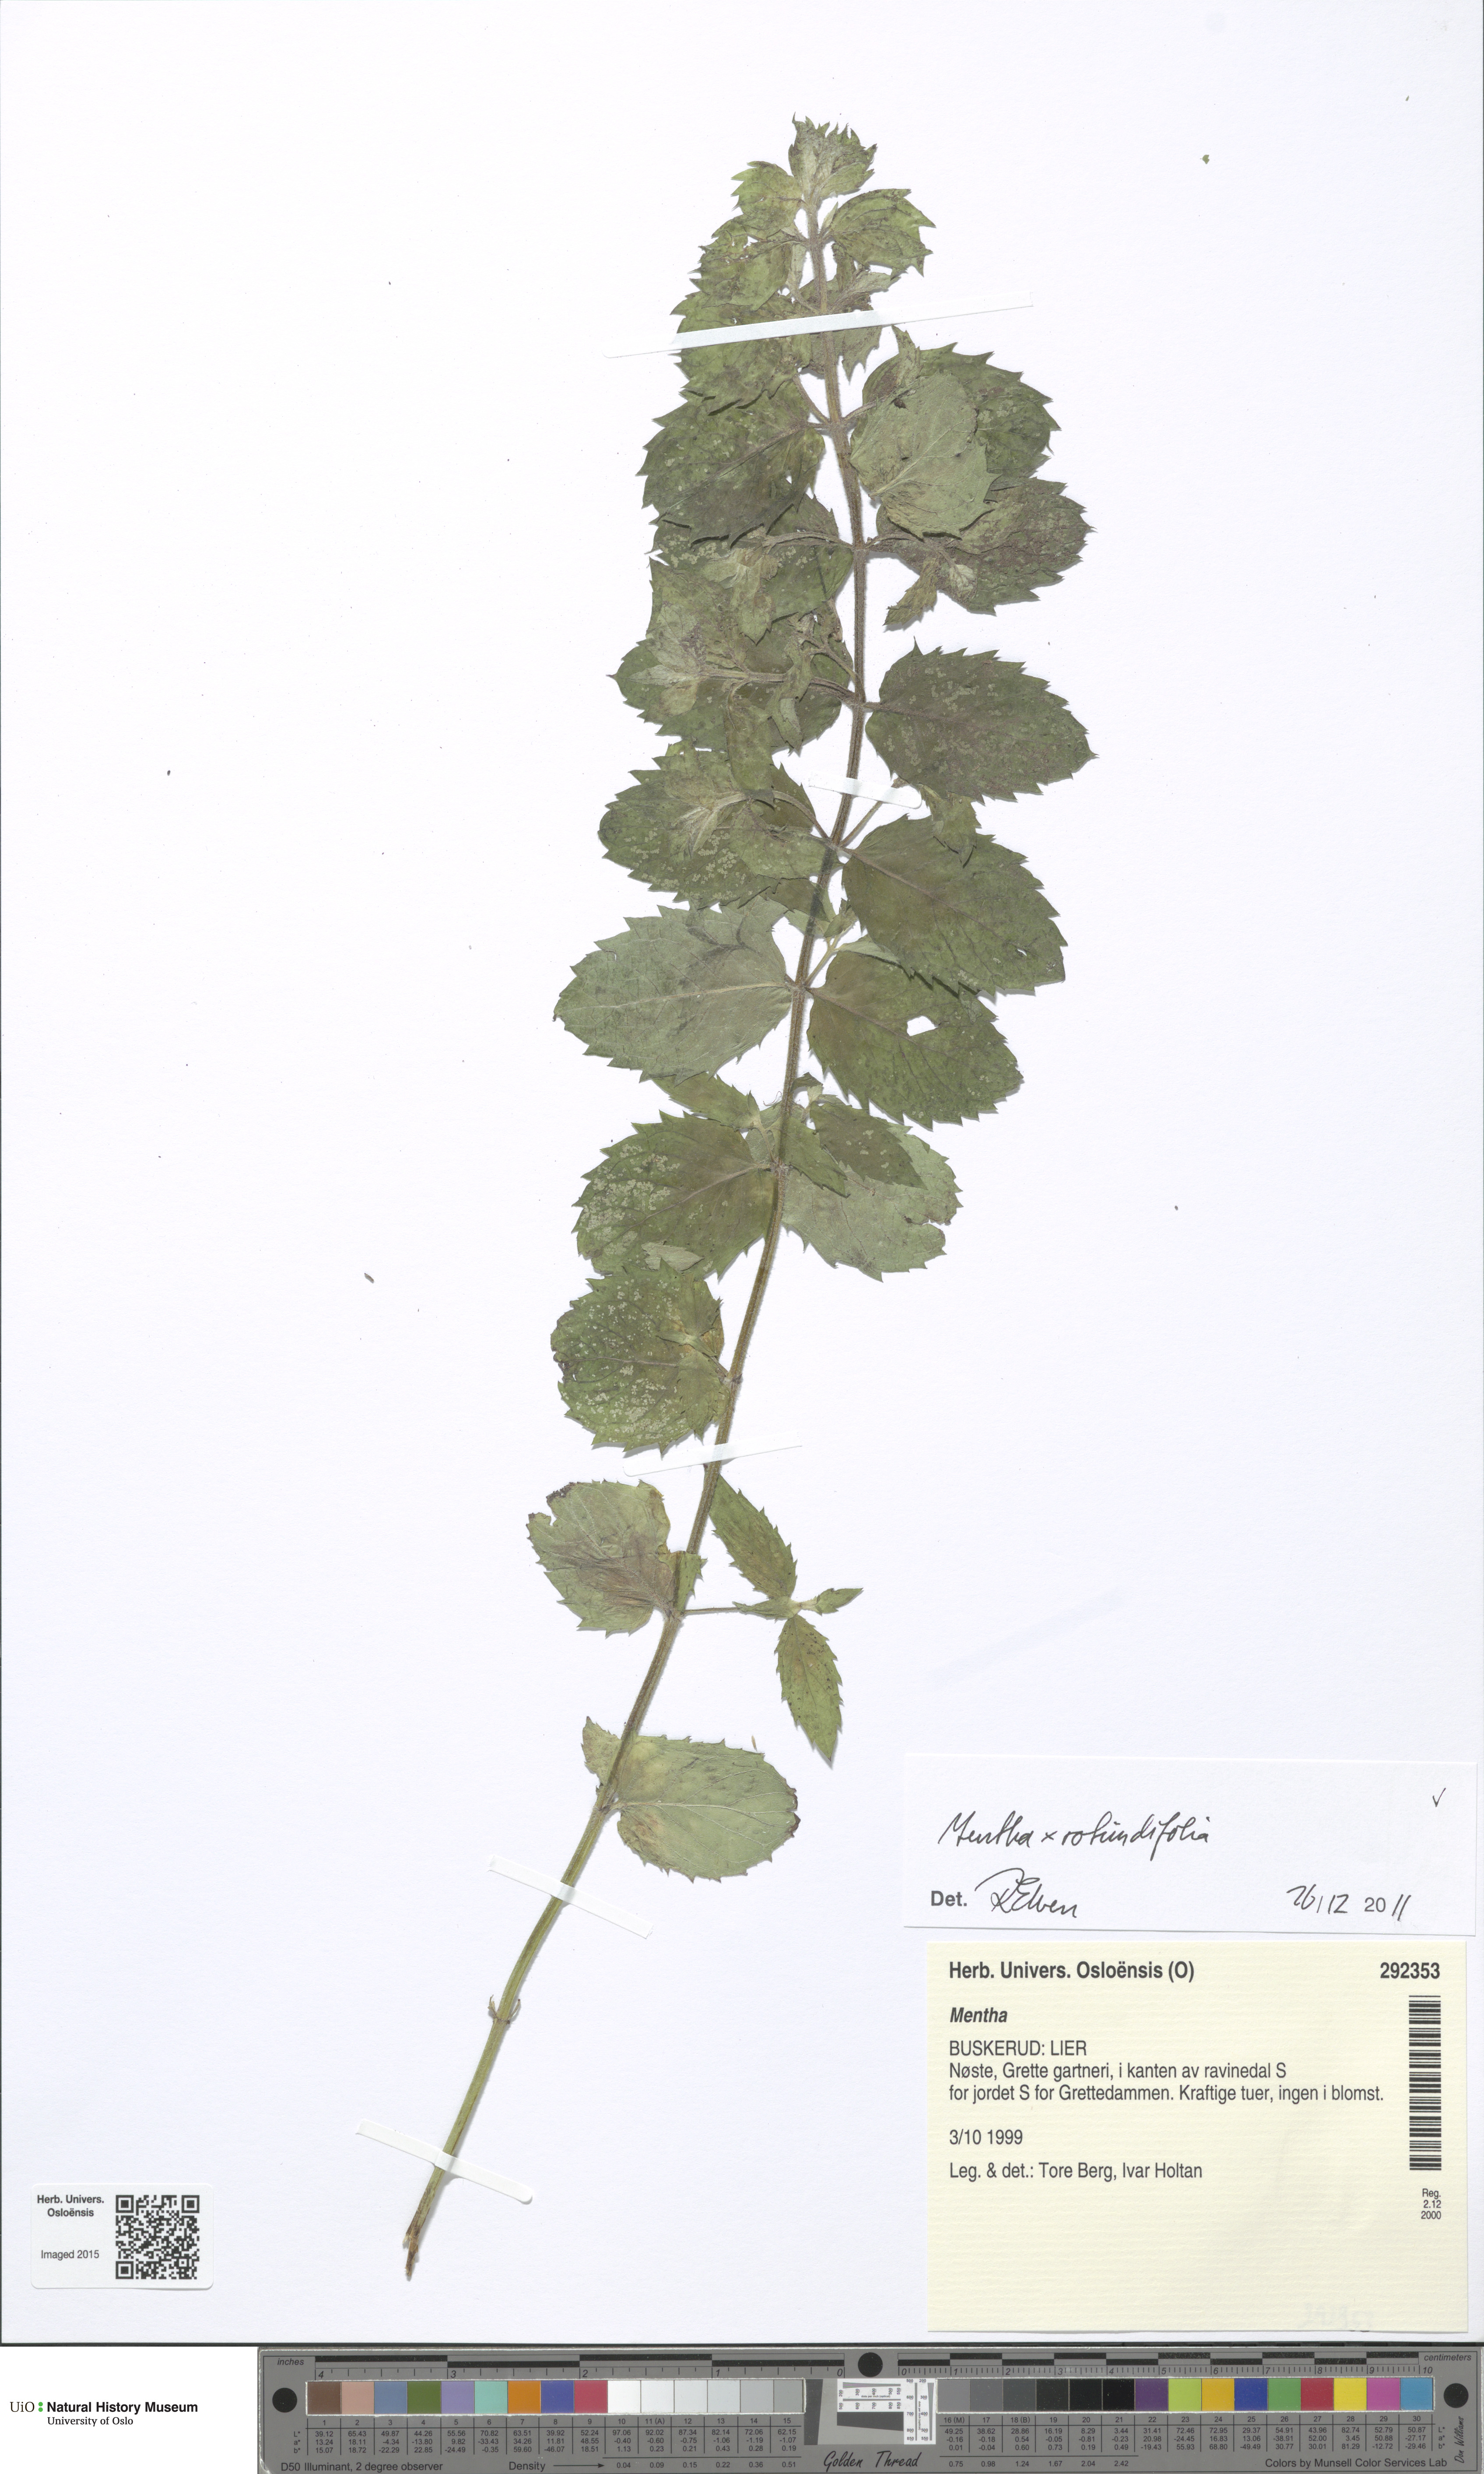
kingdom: Plantae
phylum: Tracheophyta
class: Magnoliopsida
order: Lamiales
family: Lamiaceae
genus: Mentha
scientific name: Mentha villosa
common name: Apple mint
